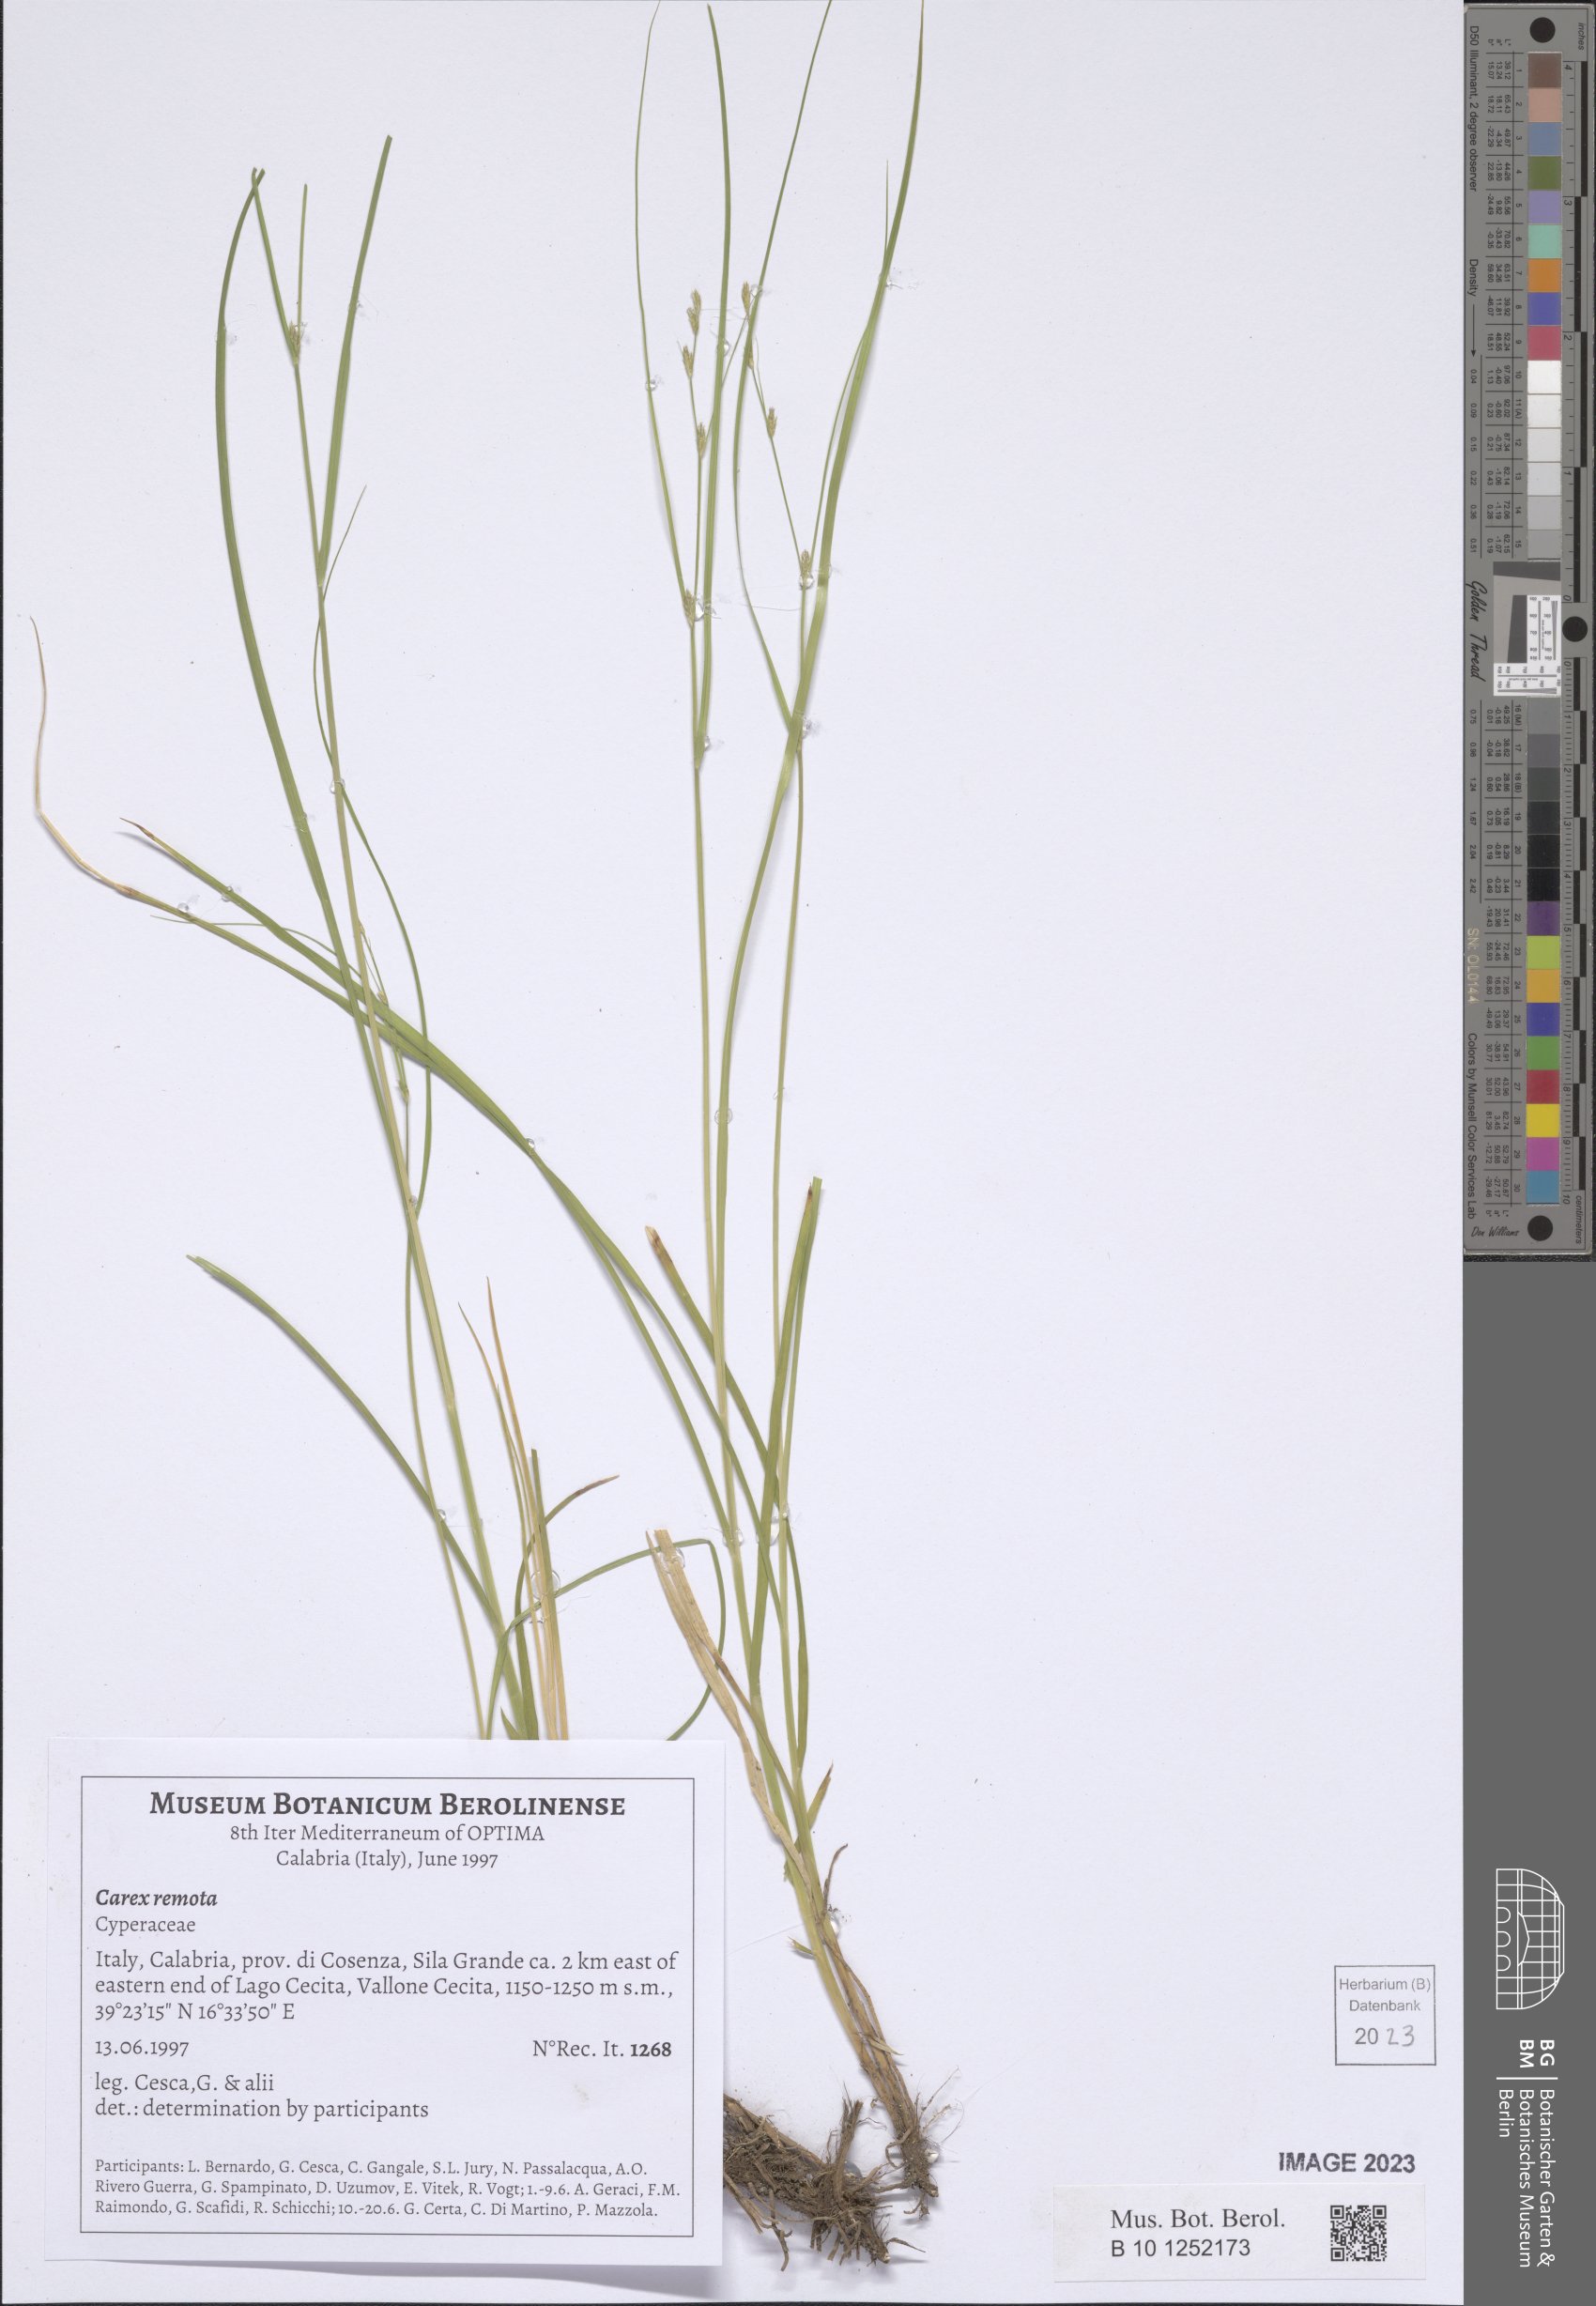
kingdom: Plantae
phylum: Tracheophyta
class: Liliopsida
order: Poales
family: Cyperaceae
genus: Carex
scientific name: Carex remota
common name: Remote sedge
